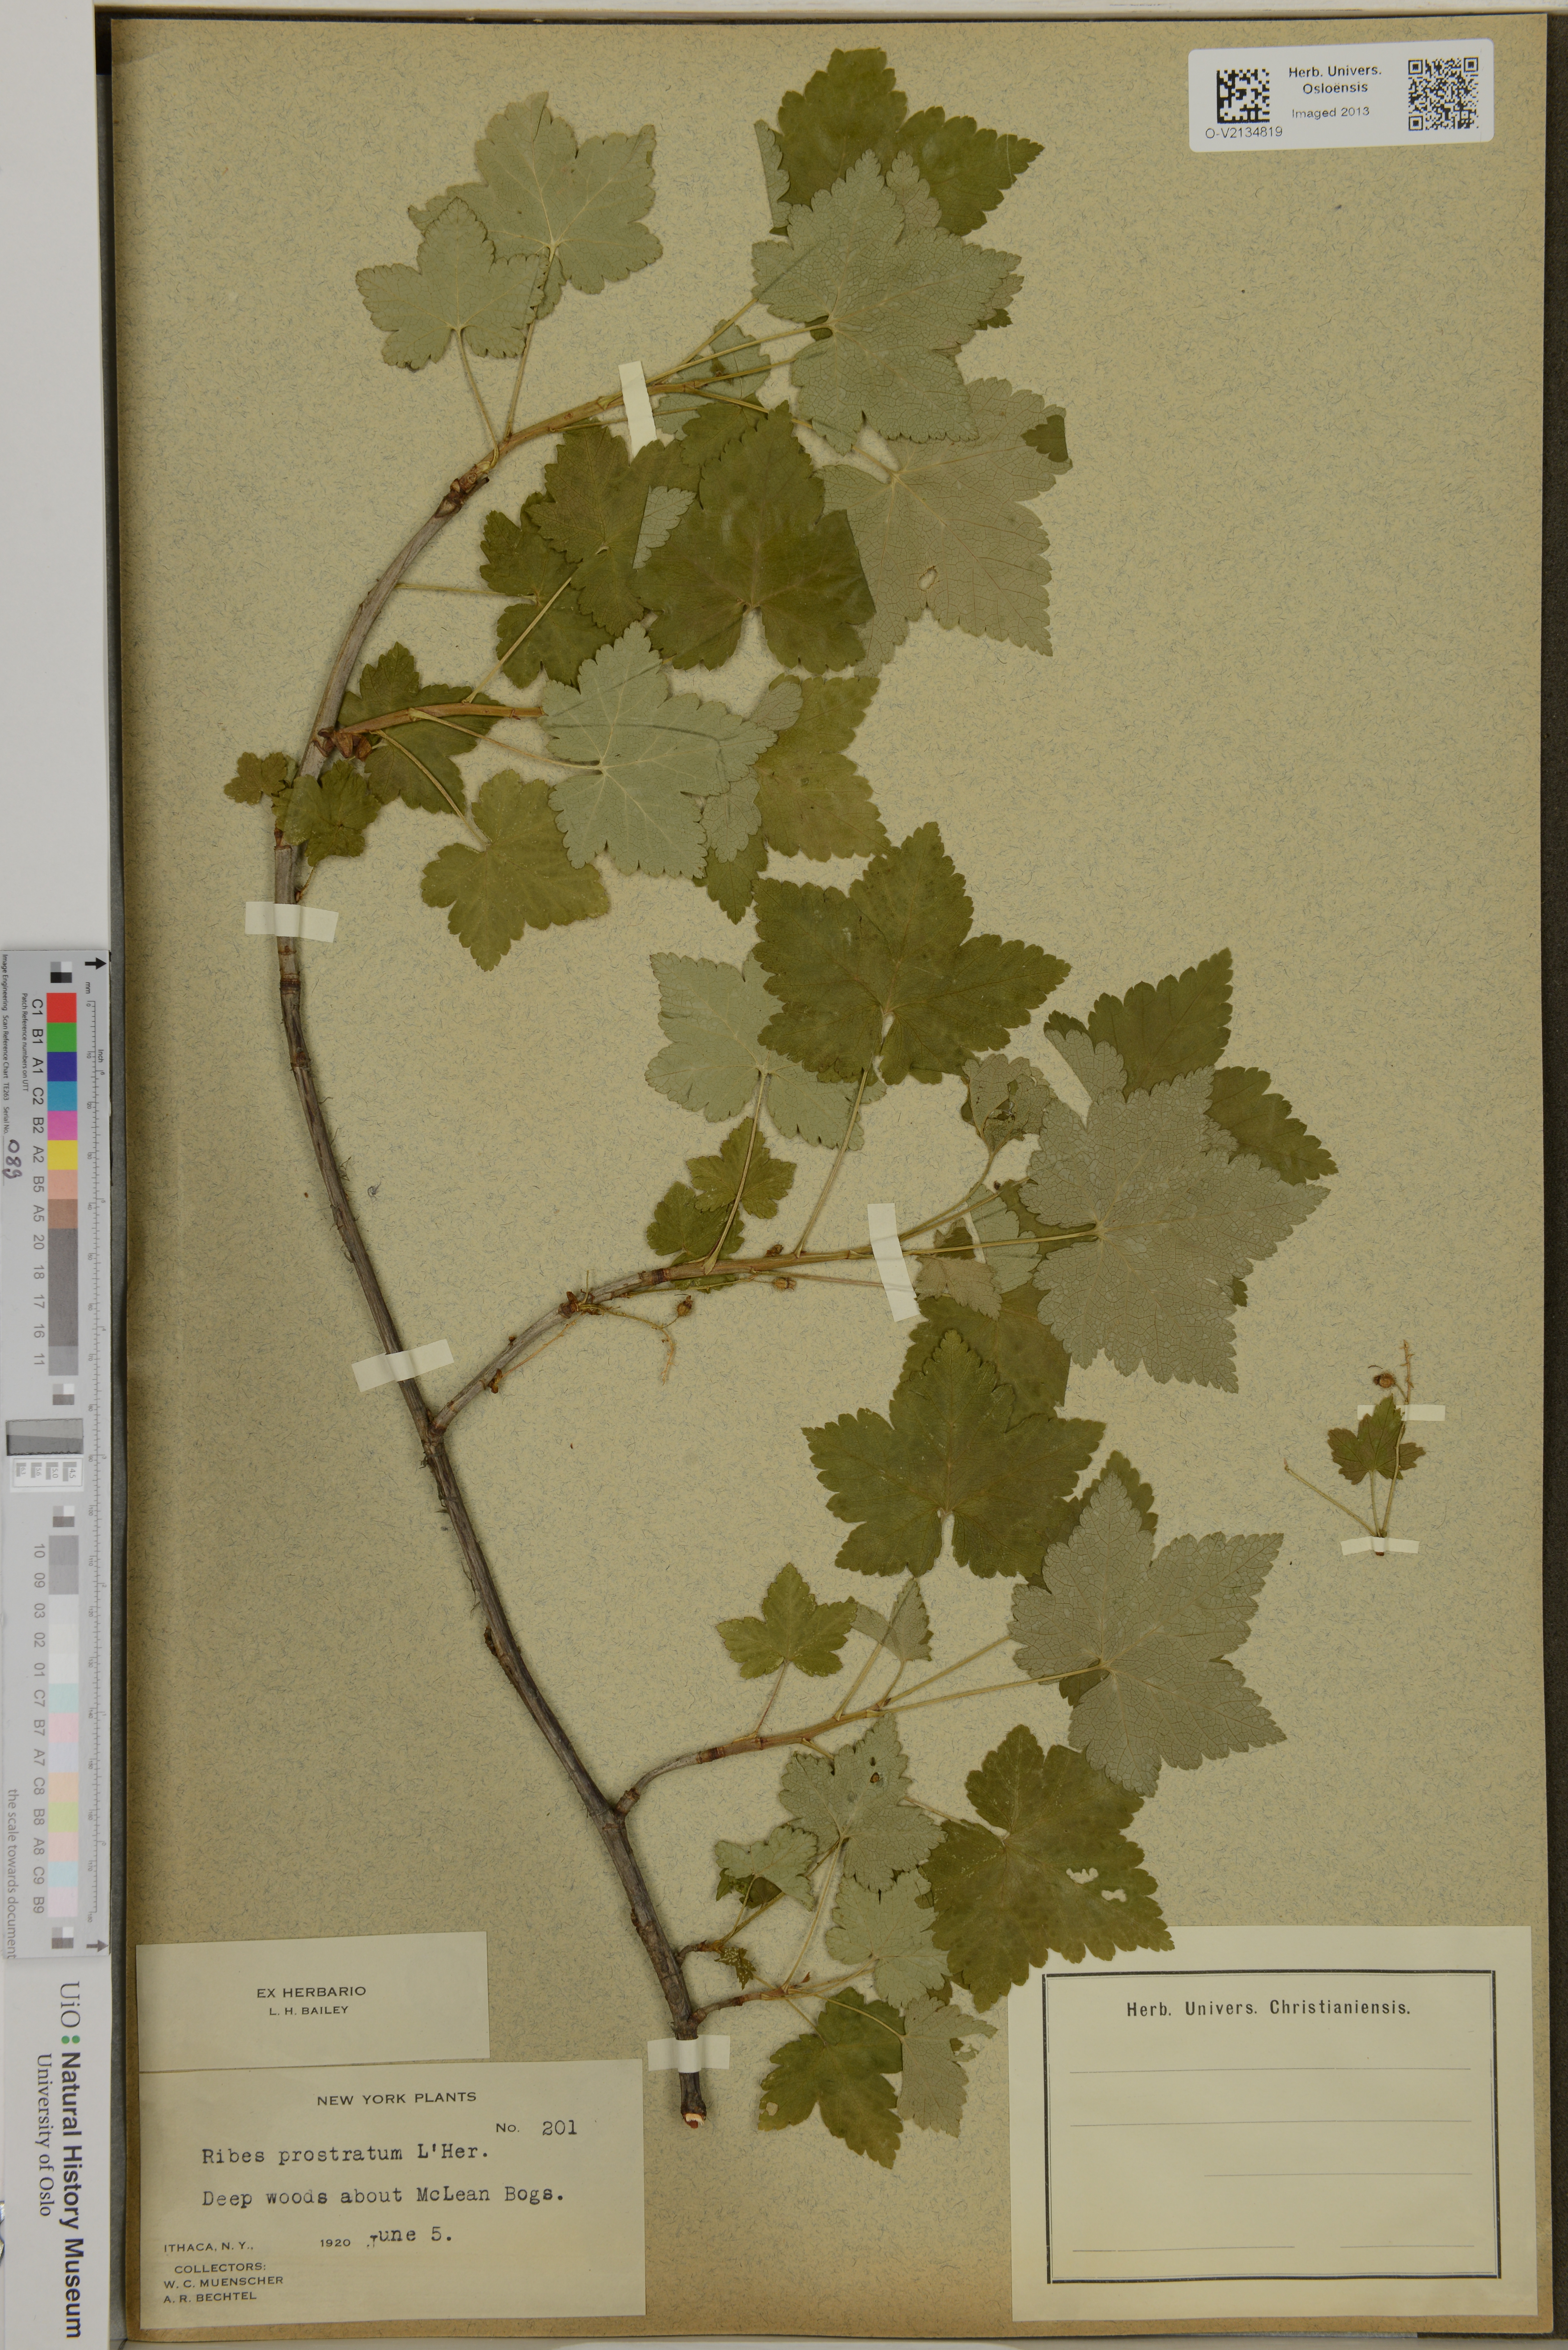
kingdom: Plantae
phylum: Tracheophyta
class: Magnoliopsida
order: Saxifragales
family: Grossulariaceae
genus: Ribes
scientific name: Ribes glandulosum
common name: Skunk currant
